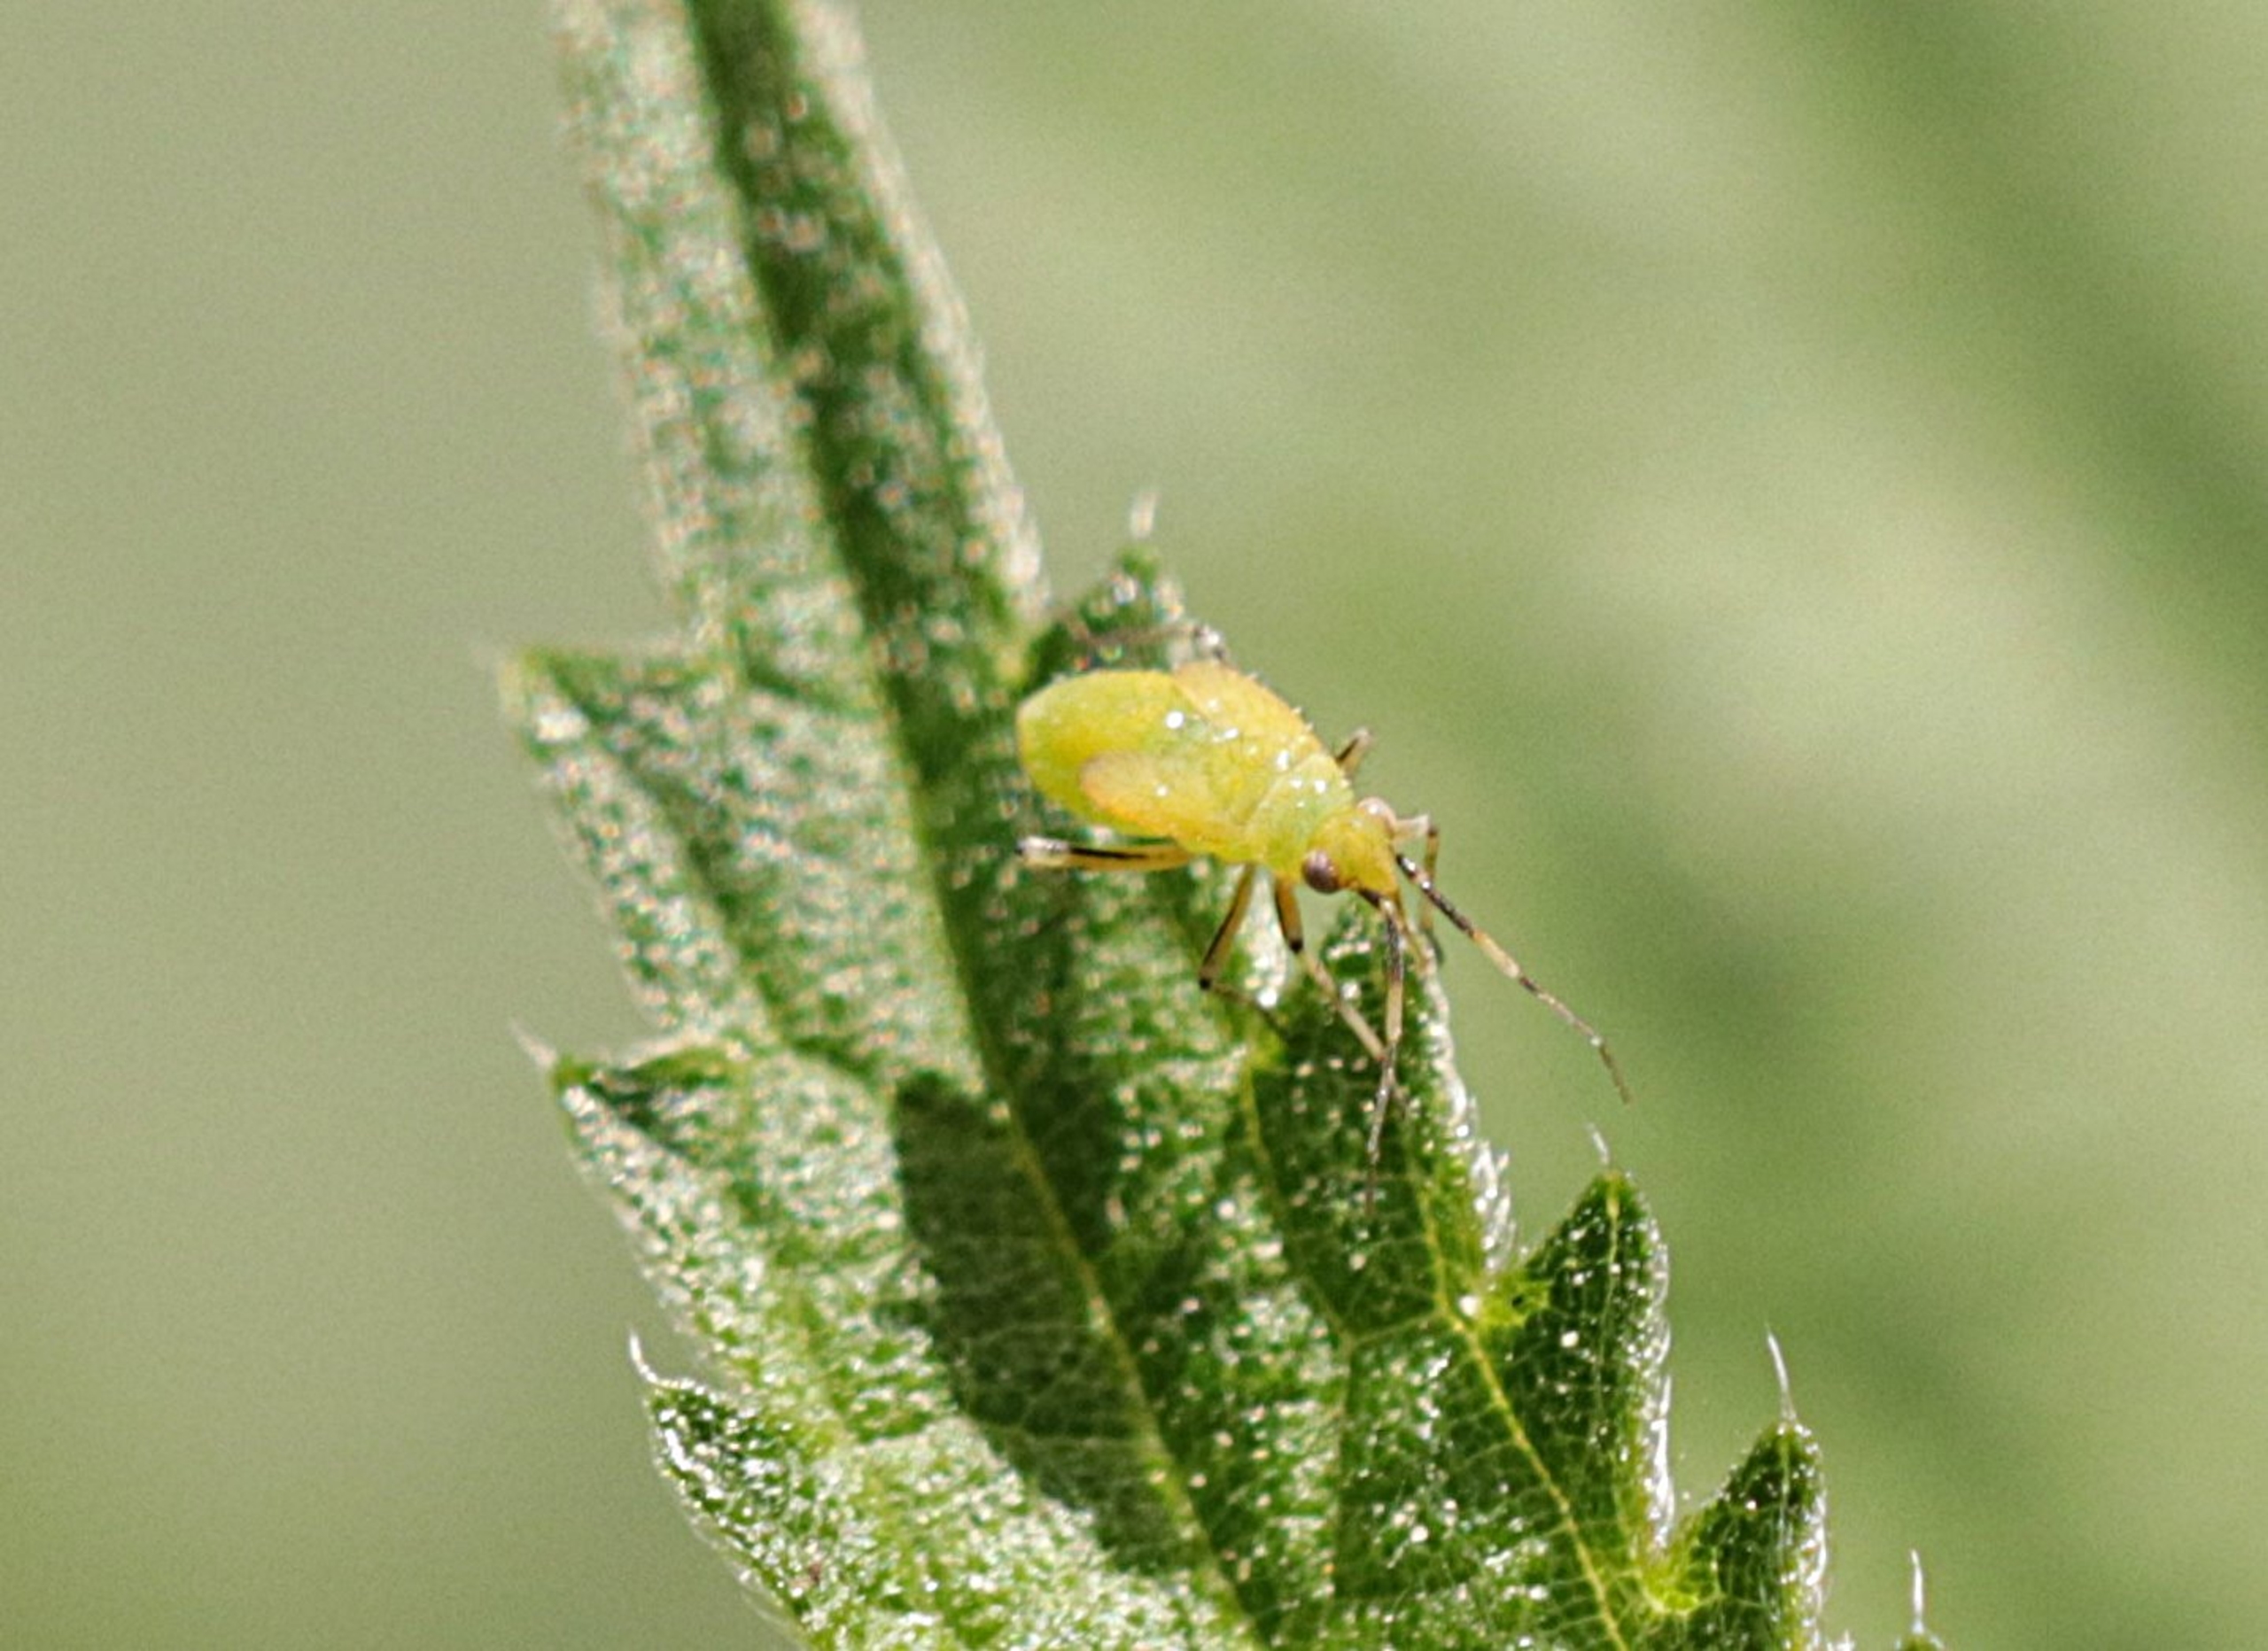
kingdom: Animalia
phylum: Arthropoda
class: Insecta
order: Hemiptera
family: Miridae
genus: Plagiognathus
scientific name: Plagiognathus arbustorum
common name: Almindelig nældeblomstertæge
